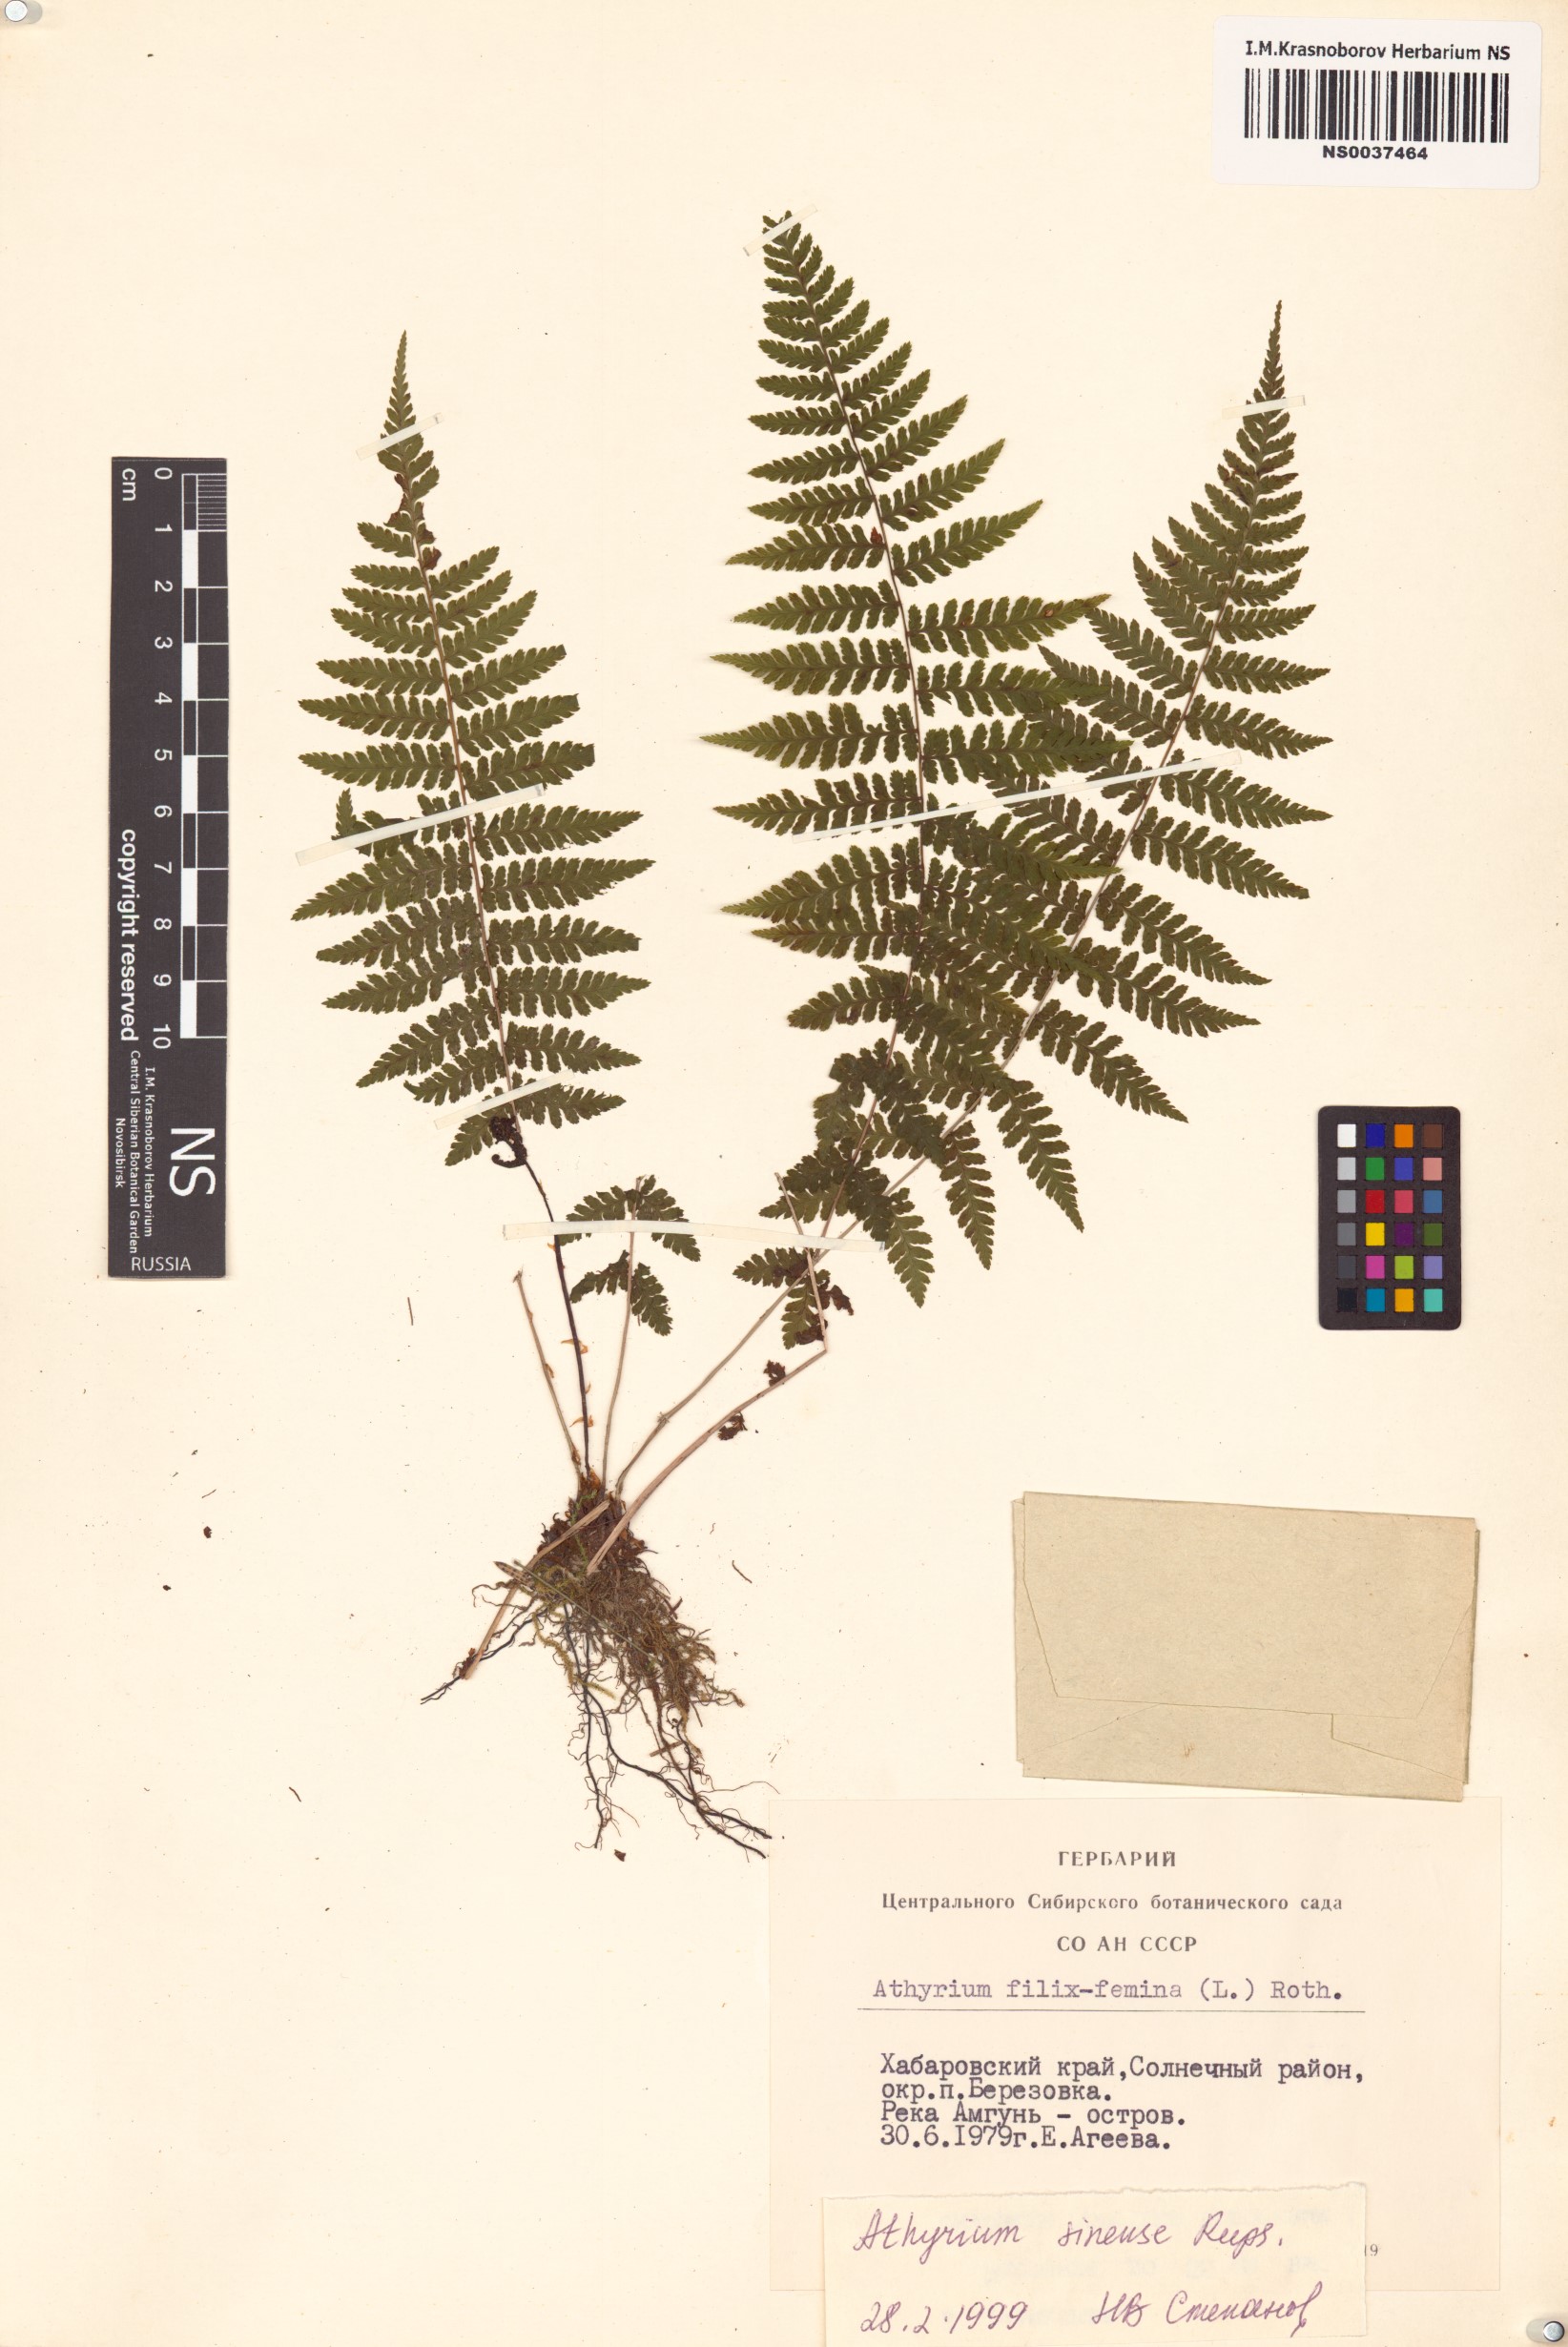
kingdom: Plantae
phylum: Tracheophyta
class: Polypodiopsida
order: Polypodiales
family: Athyriaceae
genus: Athyrium
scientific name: Athyrium sinense
